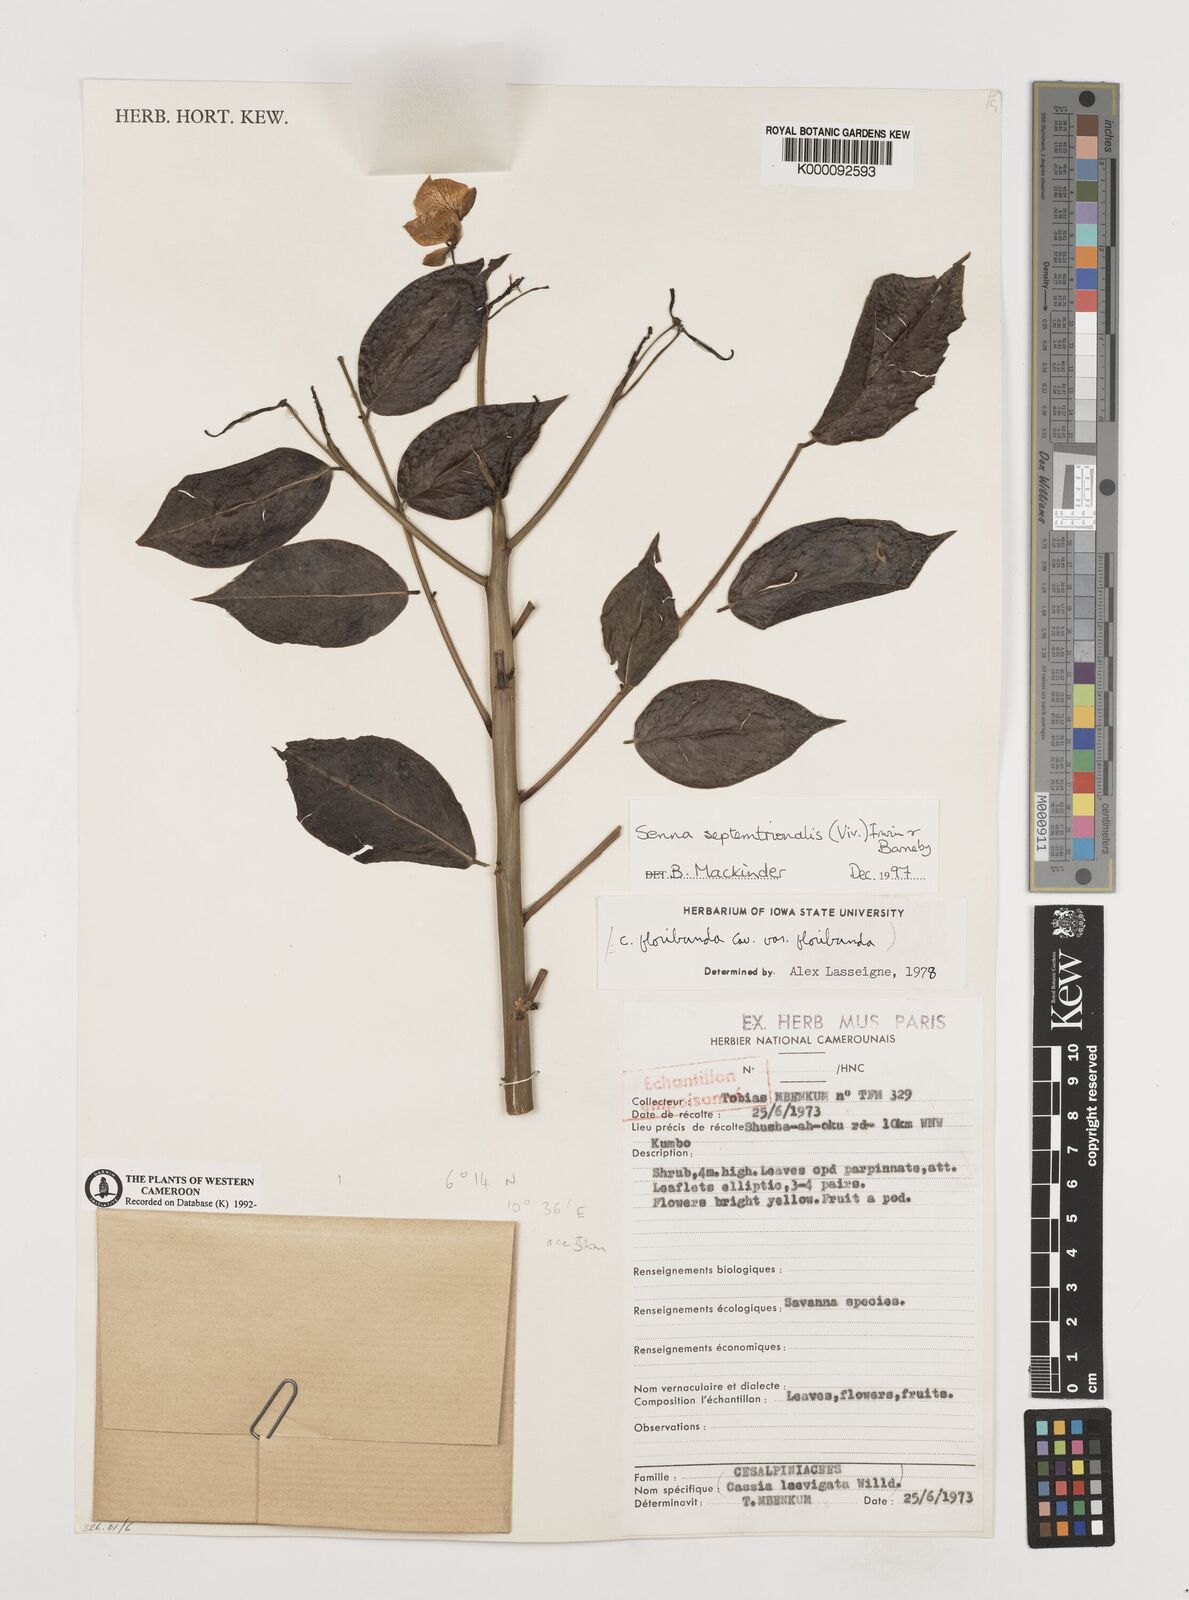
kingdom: Plantae
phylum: Tracheophyta
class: Magnoliopsida
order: Fabales
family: Fabaceae
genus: Senna
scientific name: Senna septemtrionalis
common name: Arsenic bush
